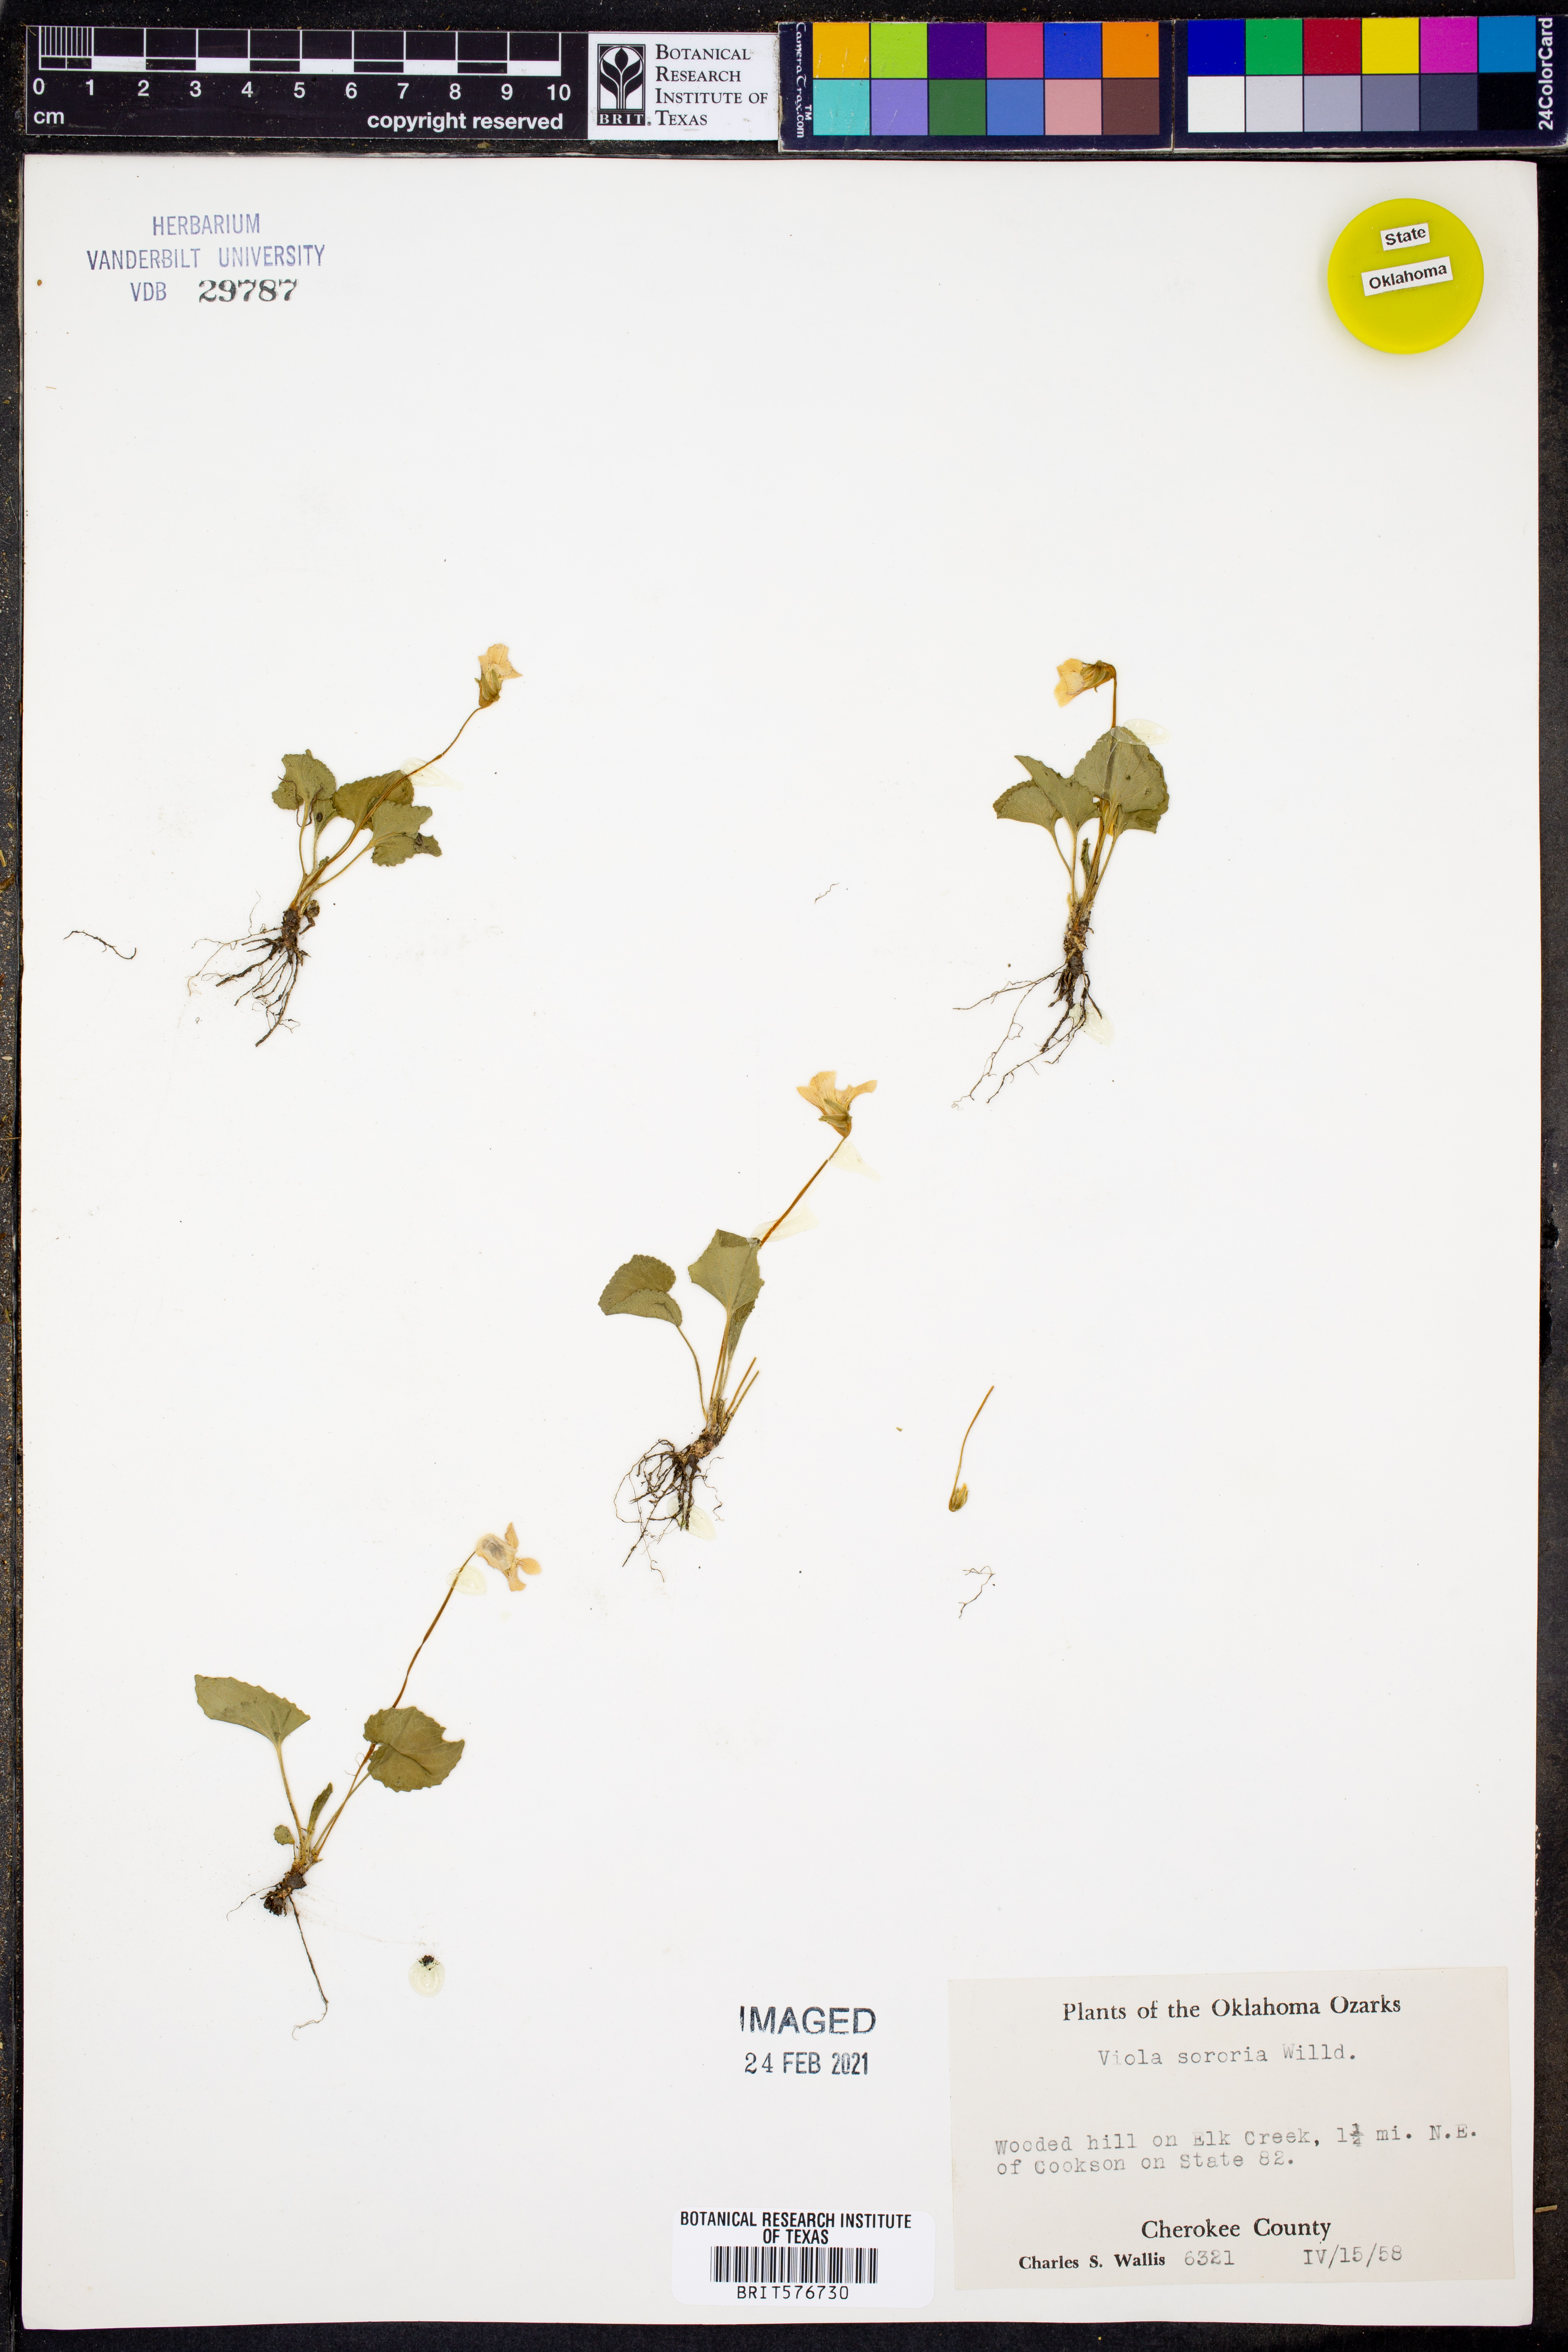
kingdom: Plantae
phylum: Tracheophyta
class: Magnoliopsida
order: Malpighiales
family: Violaceae
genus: Viola
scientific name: Viola sororia
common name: Dooryard violet
